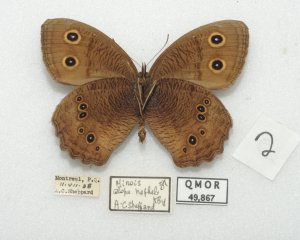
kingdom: Animalia
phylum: Arthropoda
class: Insecta
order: Lepidoptera
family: Nymphalidae
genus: Cercyonis
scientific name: Cercyonis pegala
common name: Common Wood-Nymph
